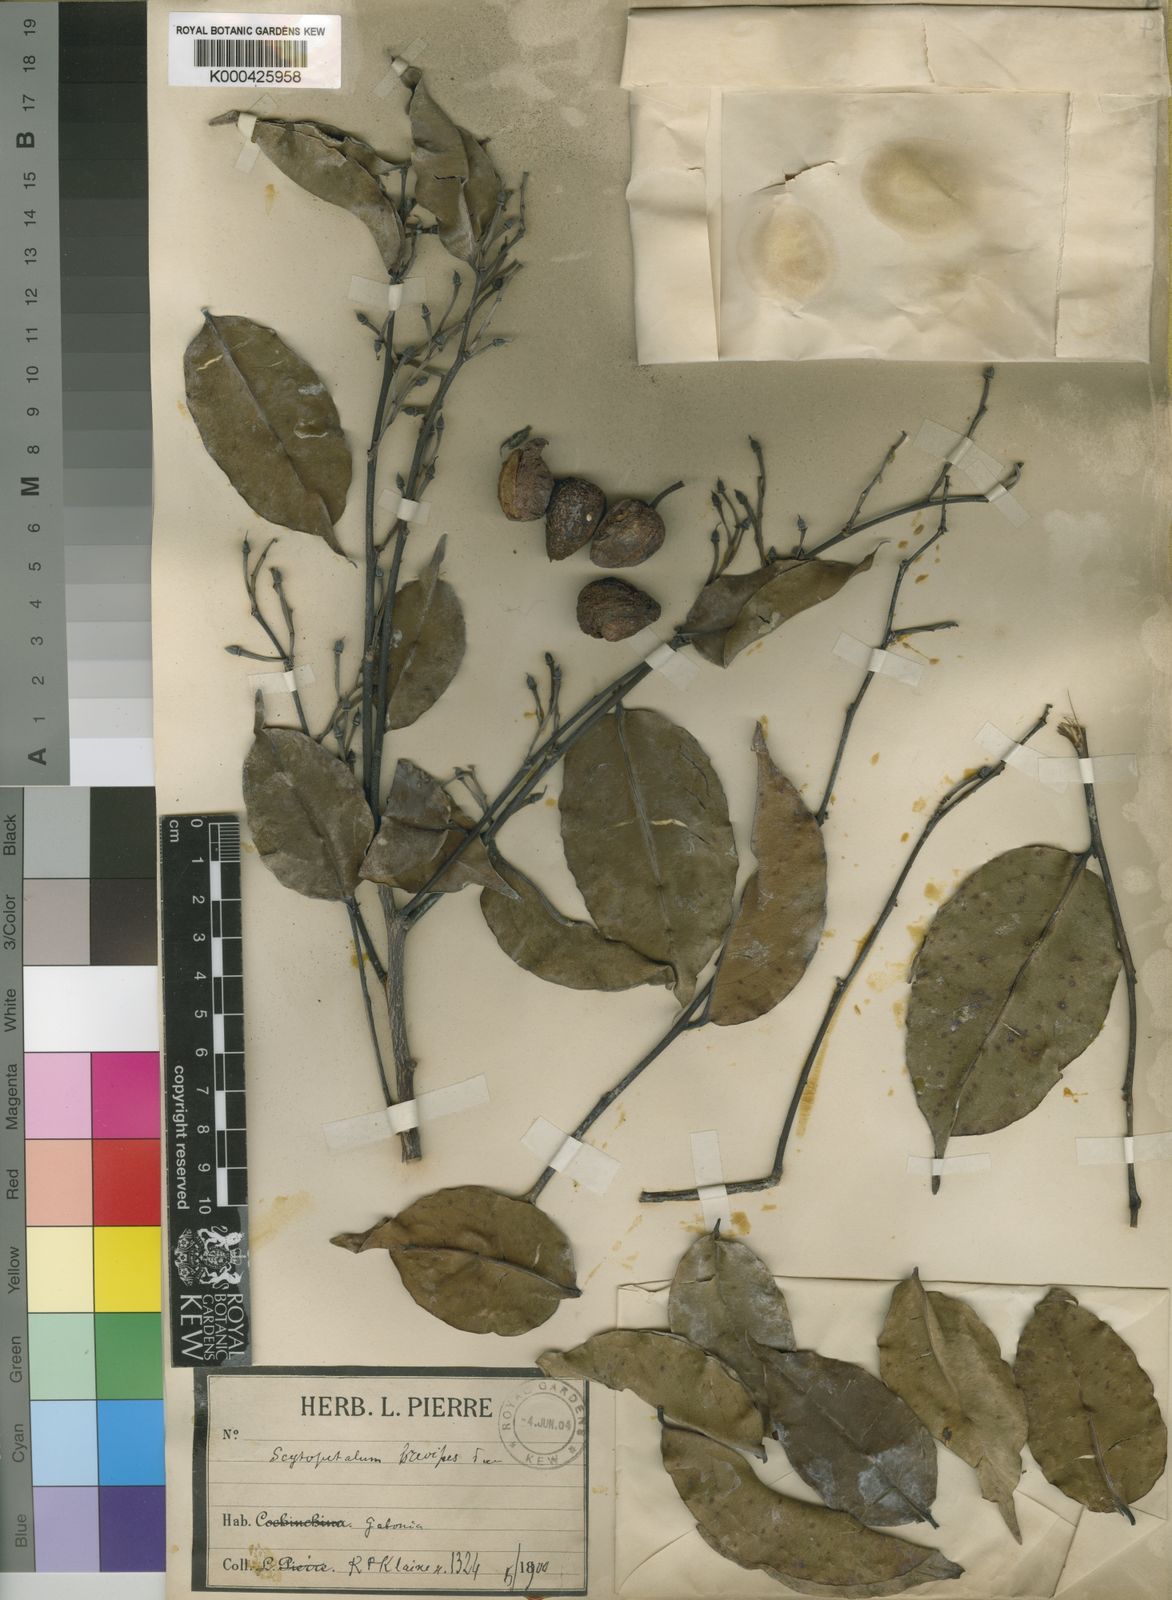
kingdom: Plantae
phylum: Tracheophyta
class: Magnoliopsida
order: Ericales
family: Lecythidaceae
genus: Scytopetalum
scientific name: Scytopetalum klaineanum
